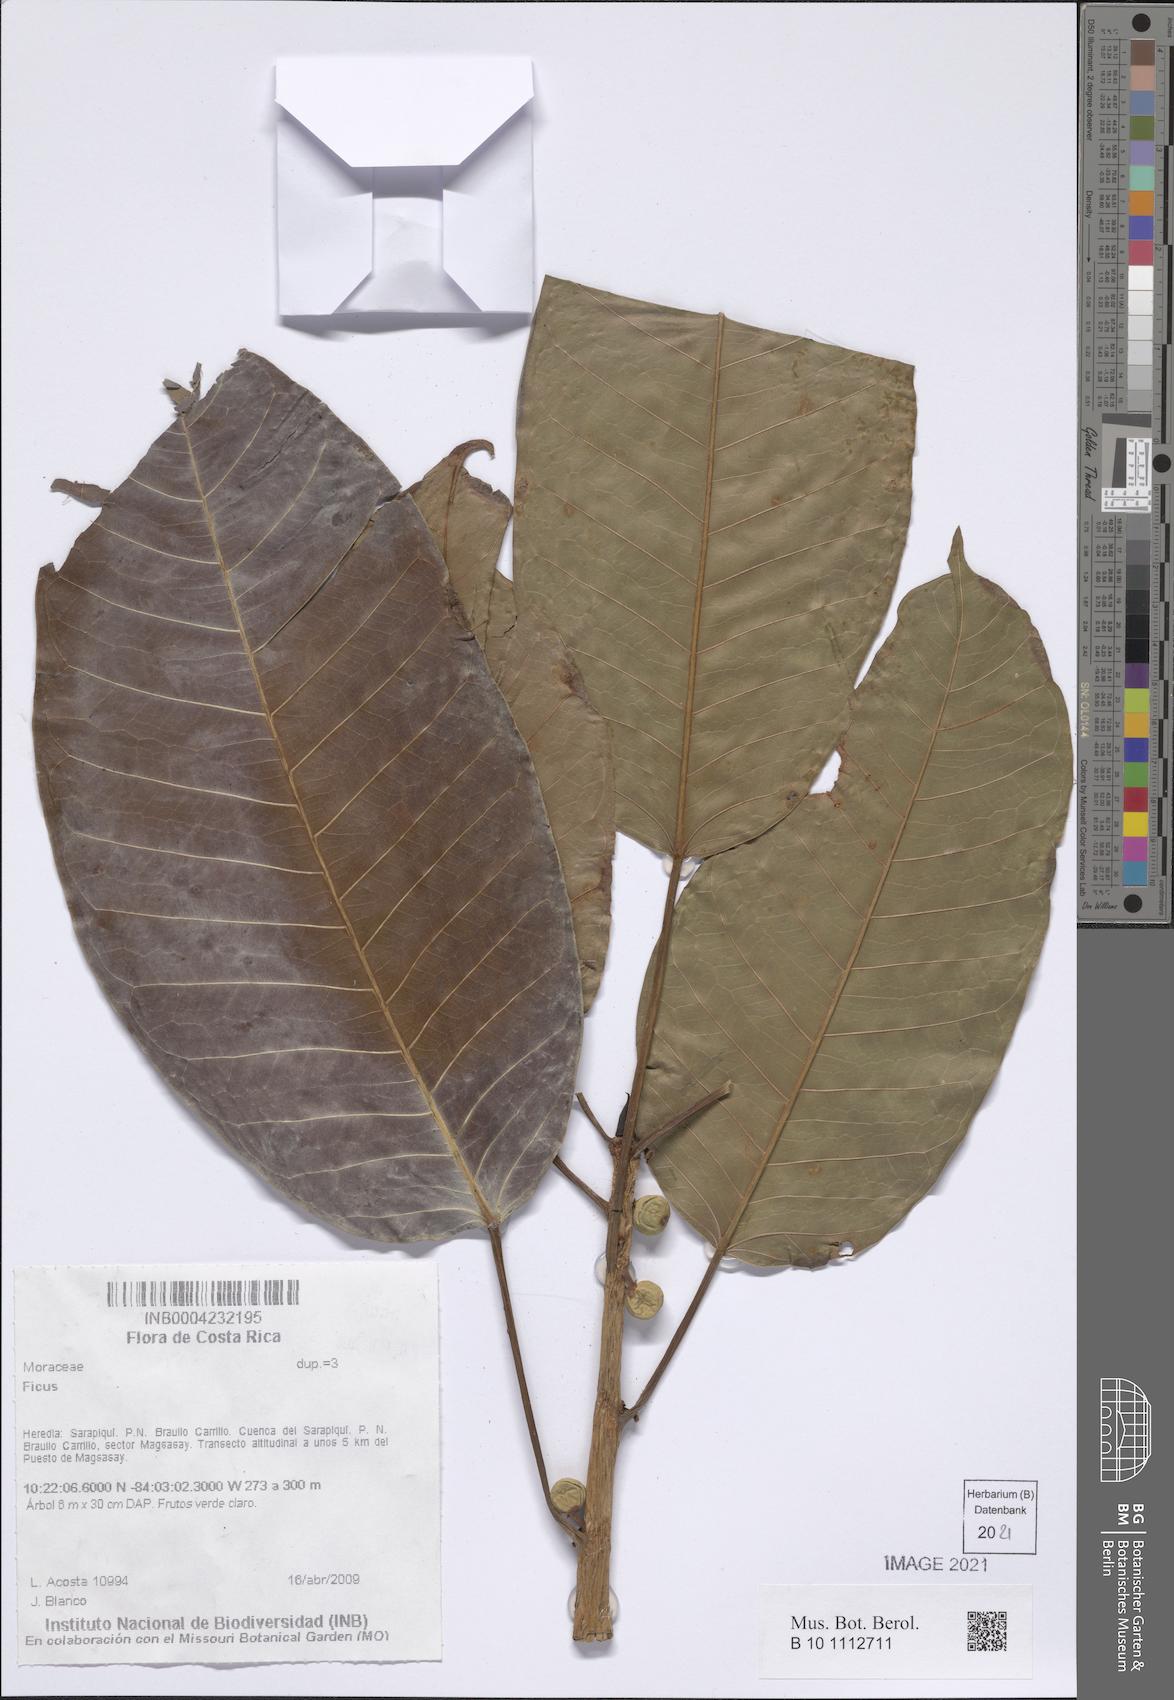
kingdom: Plantae
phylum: Tracheophyta
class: Magnoliopsida
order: Rosales
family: Moraceae
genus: Ficus
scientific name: Ficus
